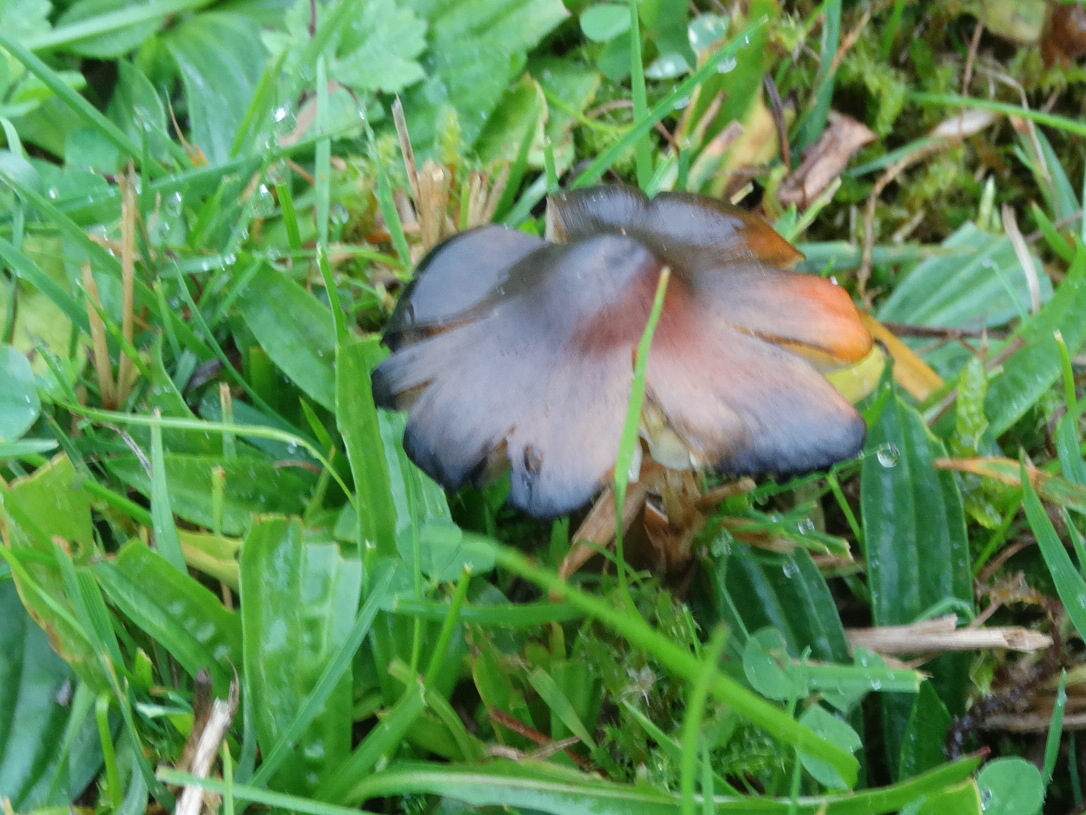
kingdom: Fungi
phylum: Basidiomycota
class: Agaricomycetes
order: Agaricales
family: Hygrophoraceae
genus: Hygrocybe
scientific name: Hygrocybe conica
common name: kegle-vokshat
